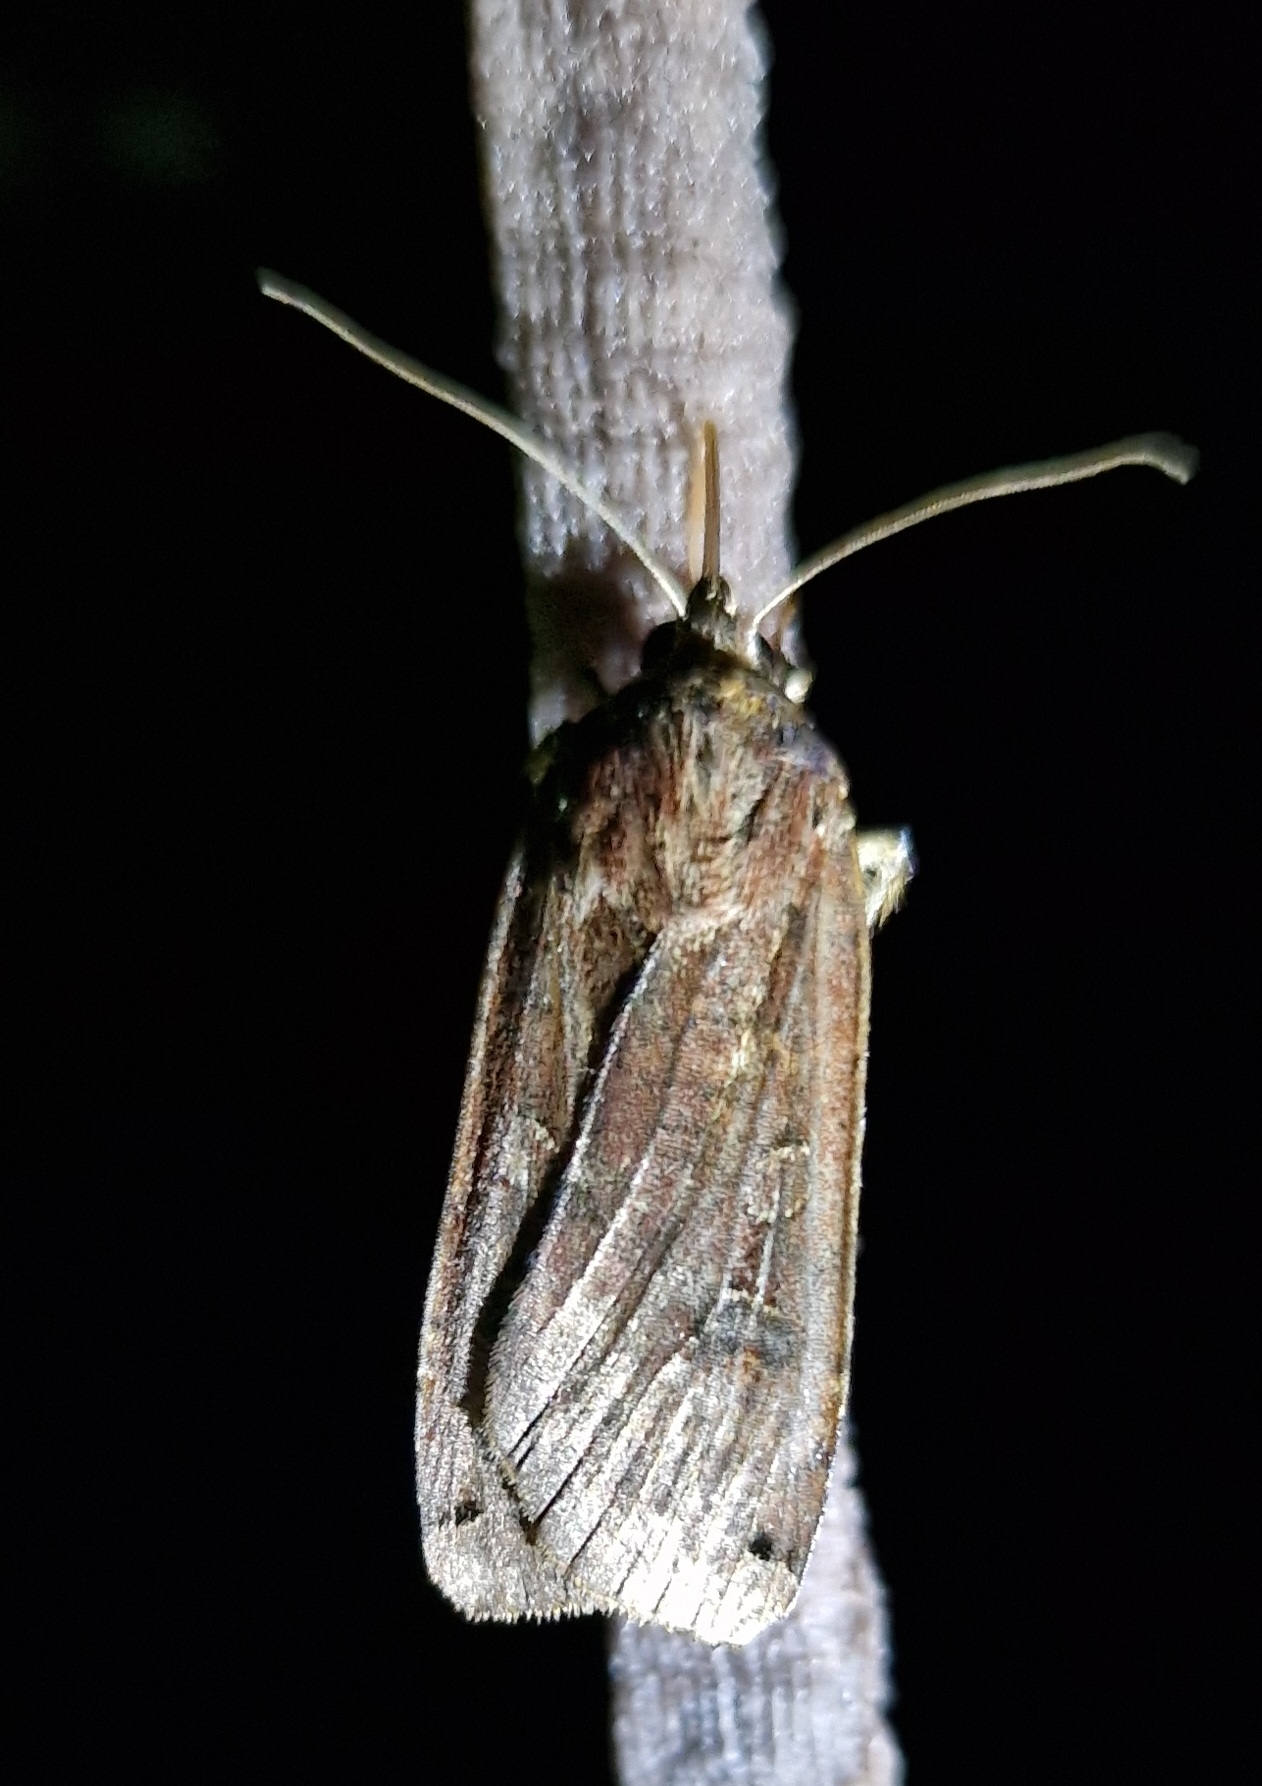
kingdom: Animalia
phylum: Arthropoda
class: Insecta
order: Lepidoptera
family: Noctuidae
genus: Noctua
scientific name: Noctua pronuba
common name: Stor smutugle
